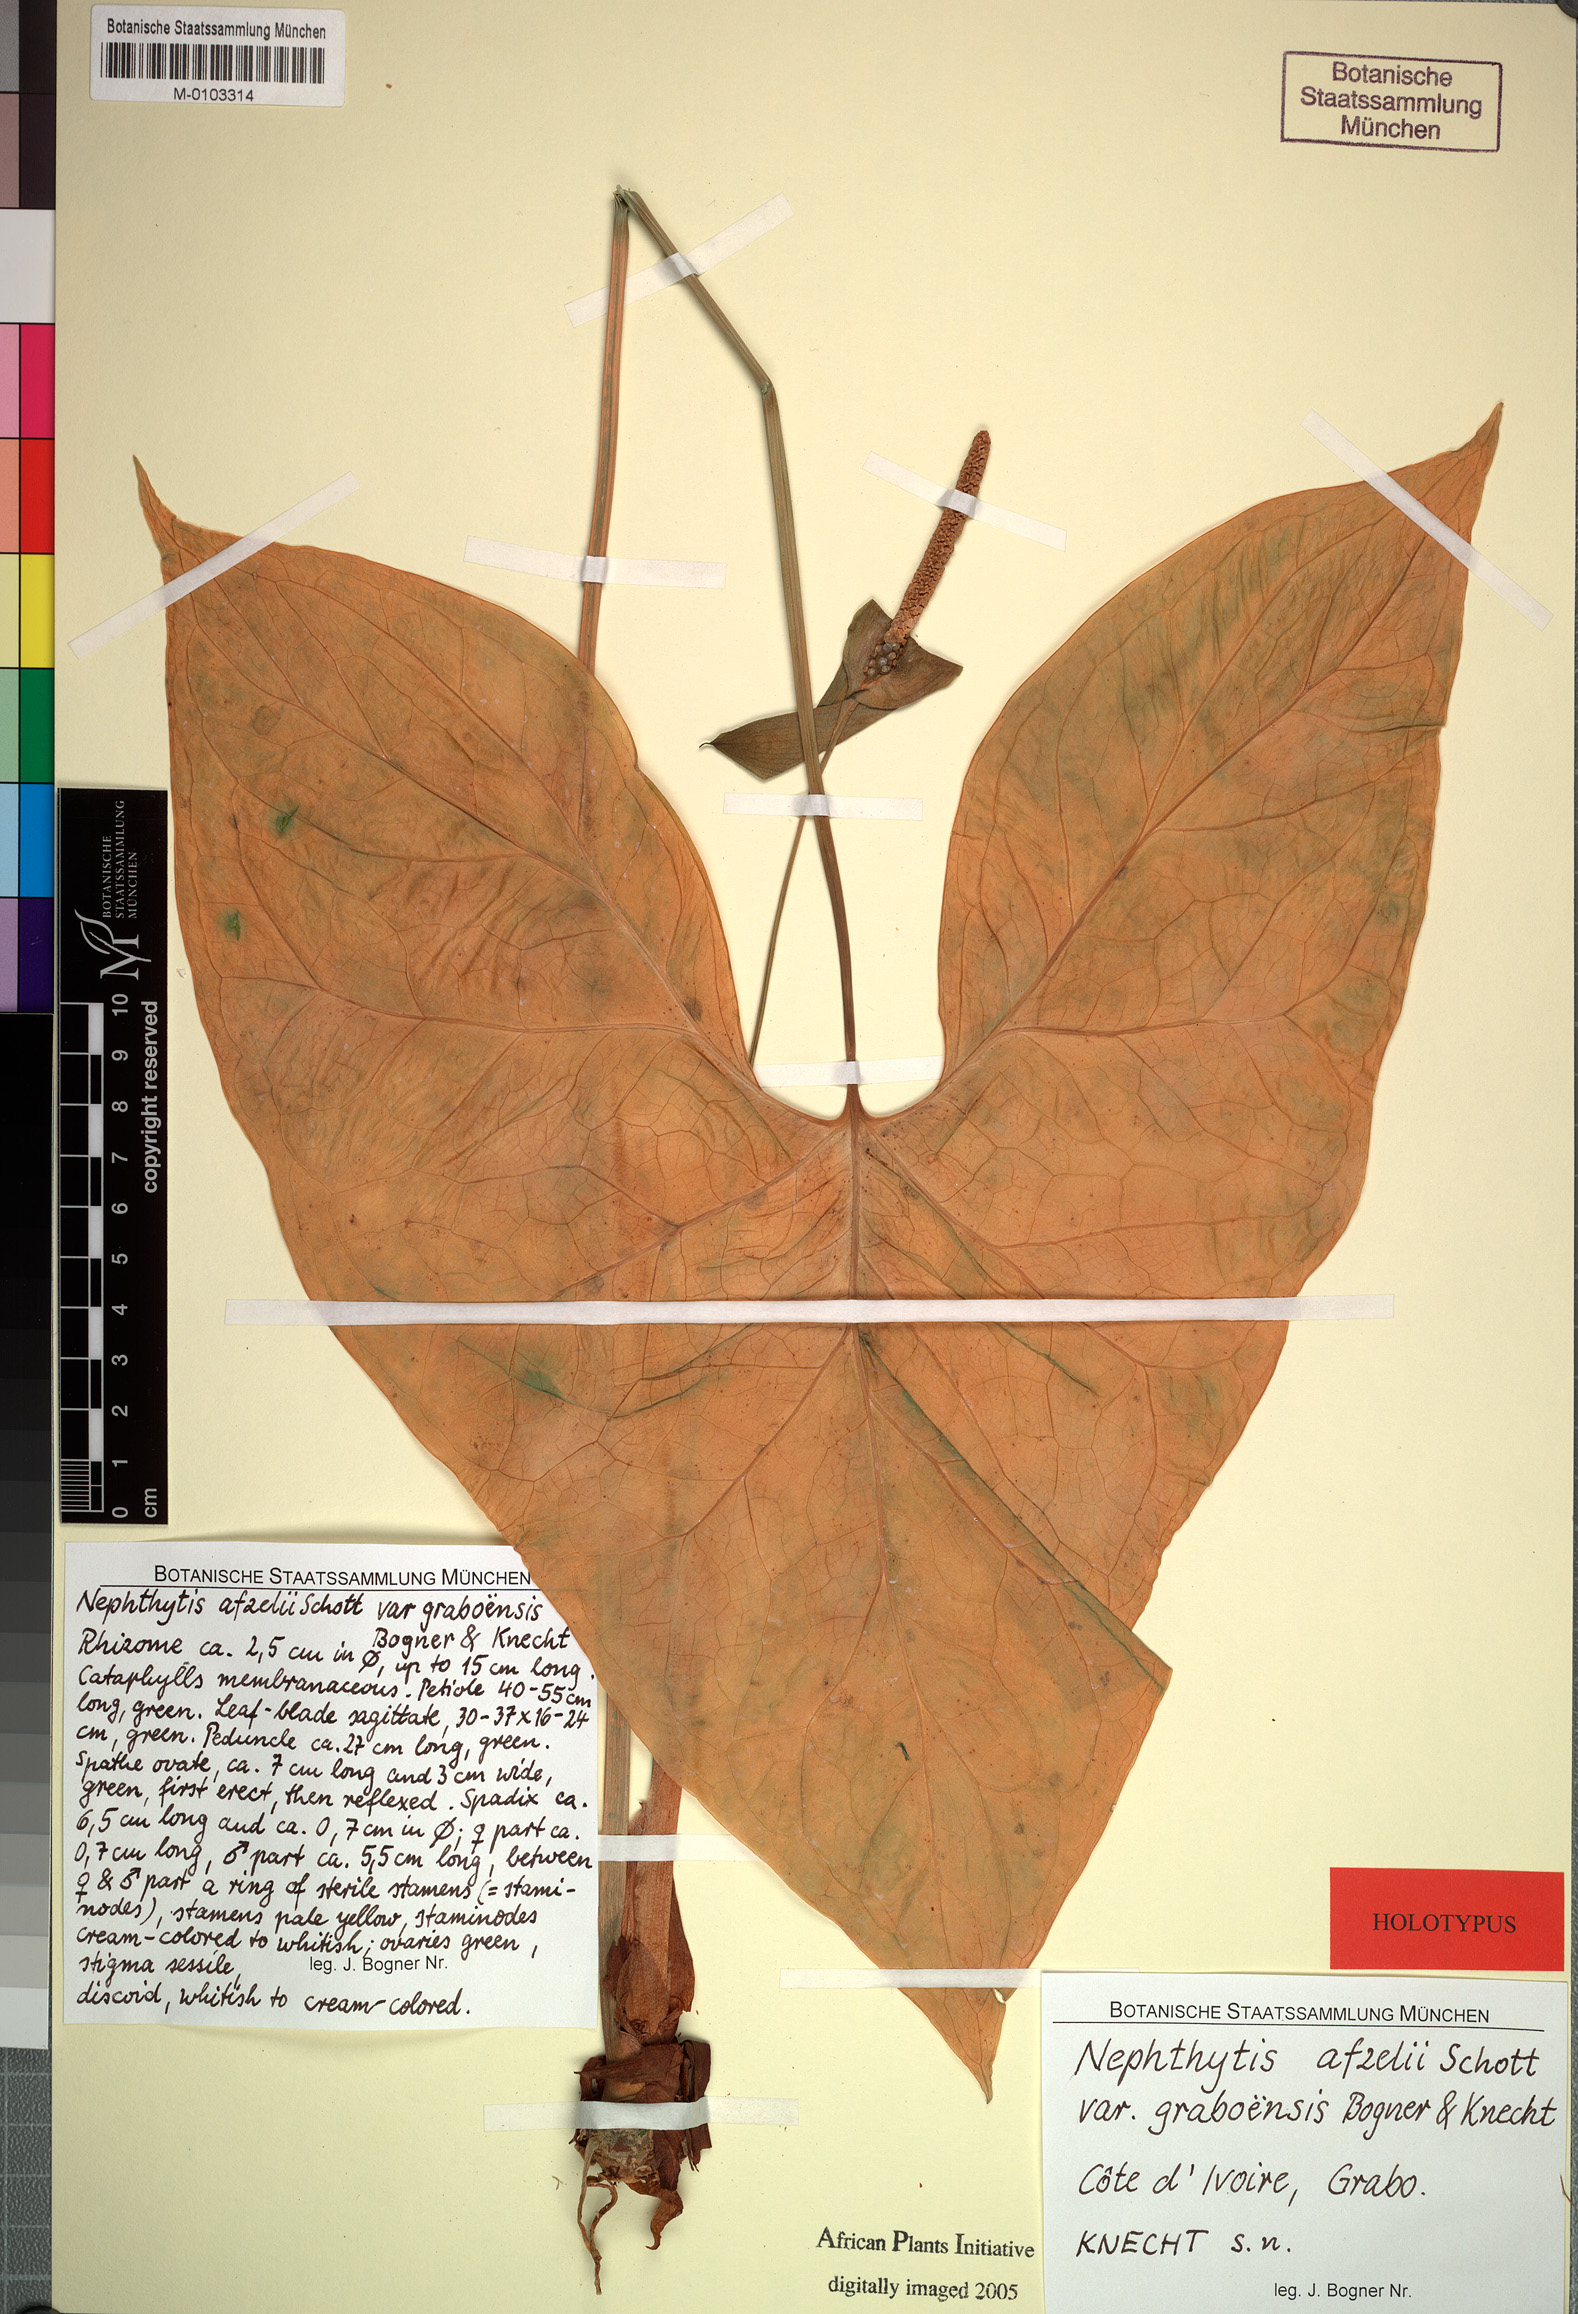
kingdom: Plantae
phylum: Tracheophyta
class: Liliopsida
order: Alismatales
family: Araceae
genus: Nephthytis
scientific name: Nephthytis afzelii
